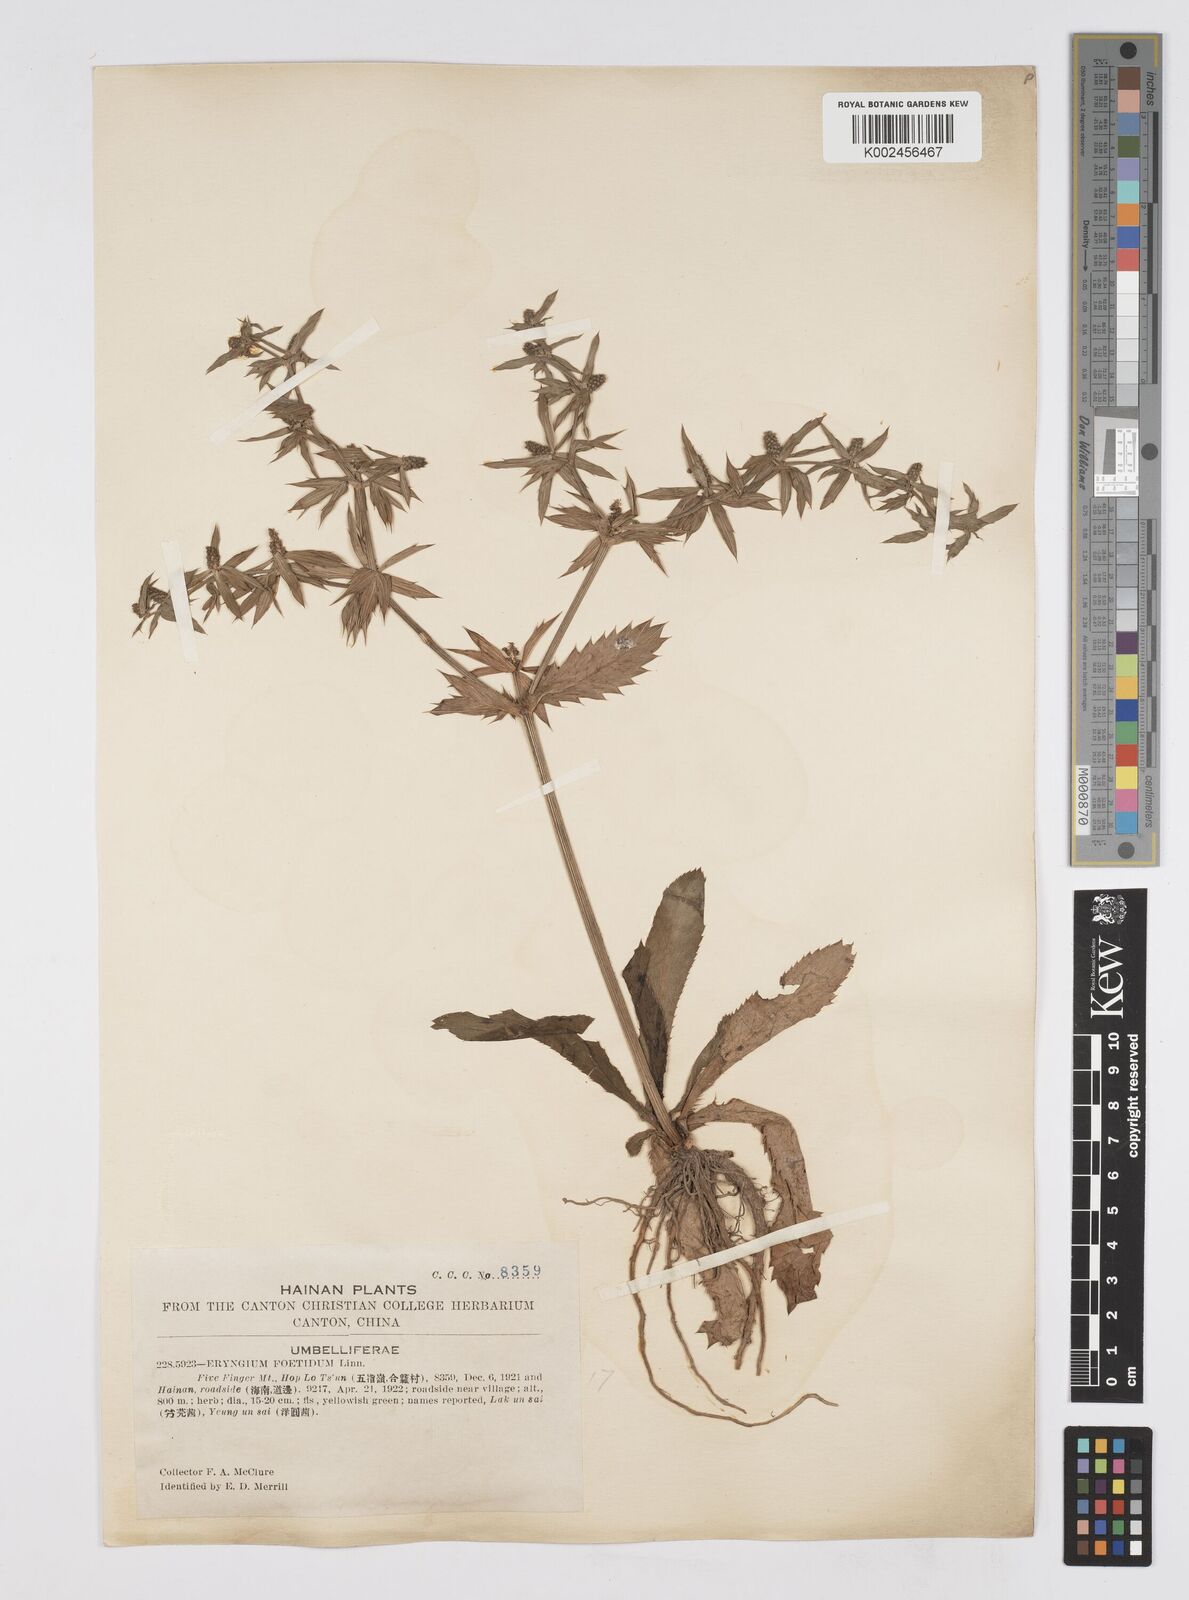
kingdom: Plantae
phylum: Tracheophyta
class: Magnoliopsida
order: Apiales
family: Apiaceae
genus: Eryngium
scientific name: Eryngium foetidum
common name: Fitweed
